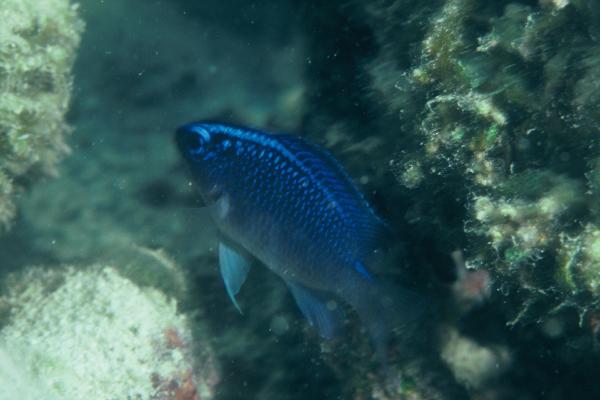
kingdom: Animalia
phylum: Chordata
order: Perciformes
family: Pomacentridae
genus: Chrysiptera
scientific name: Chrysiptera glauca
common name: Grey demoiselle
